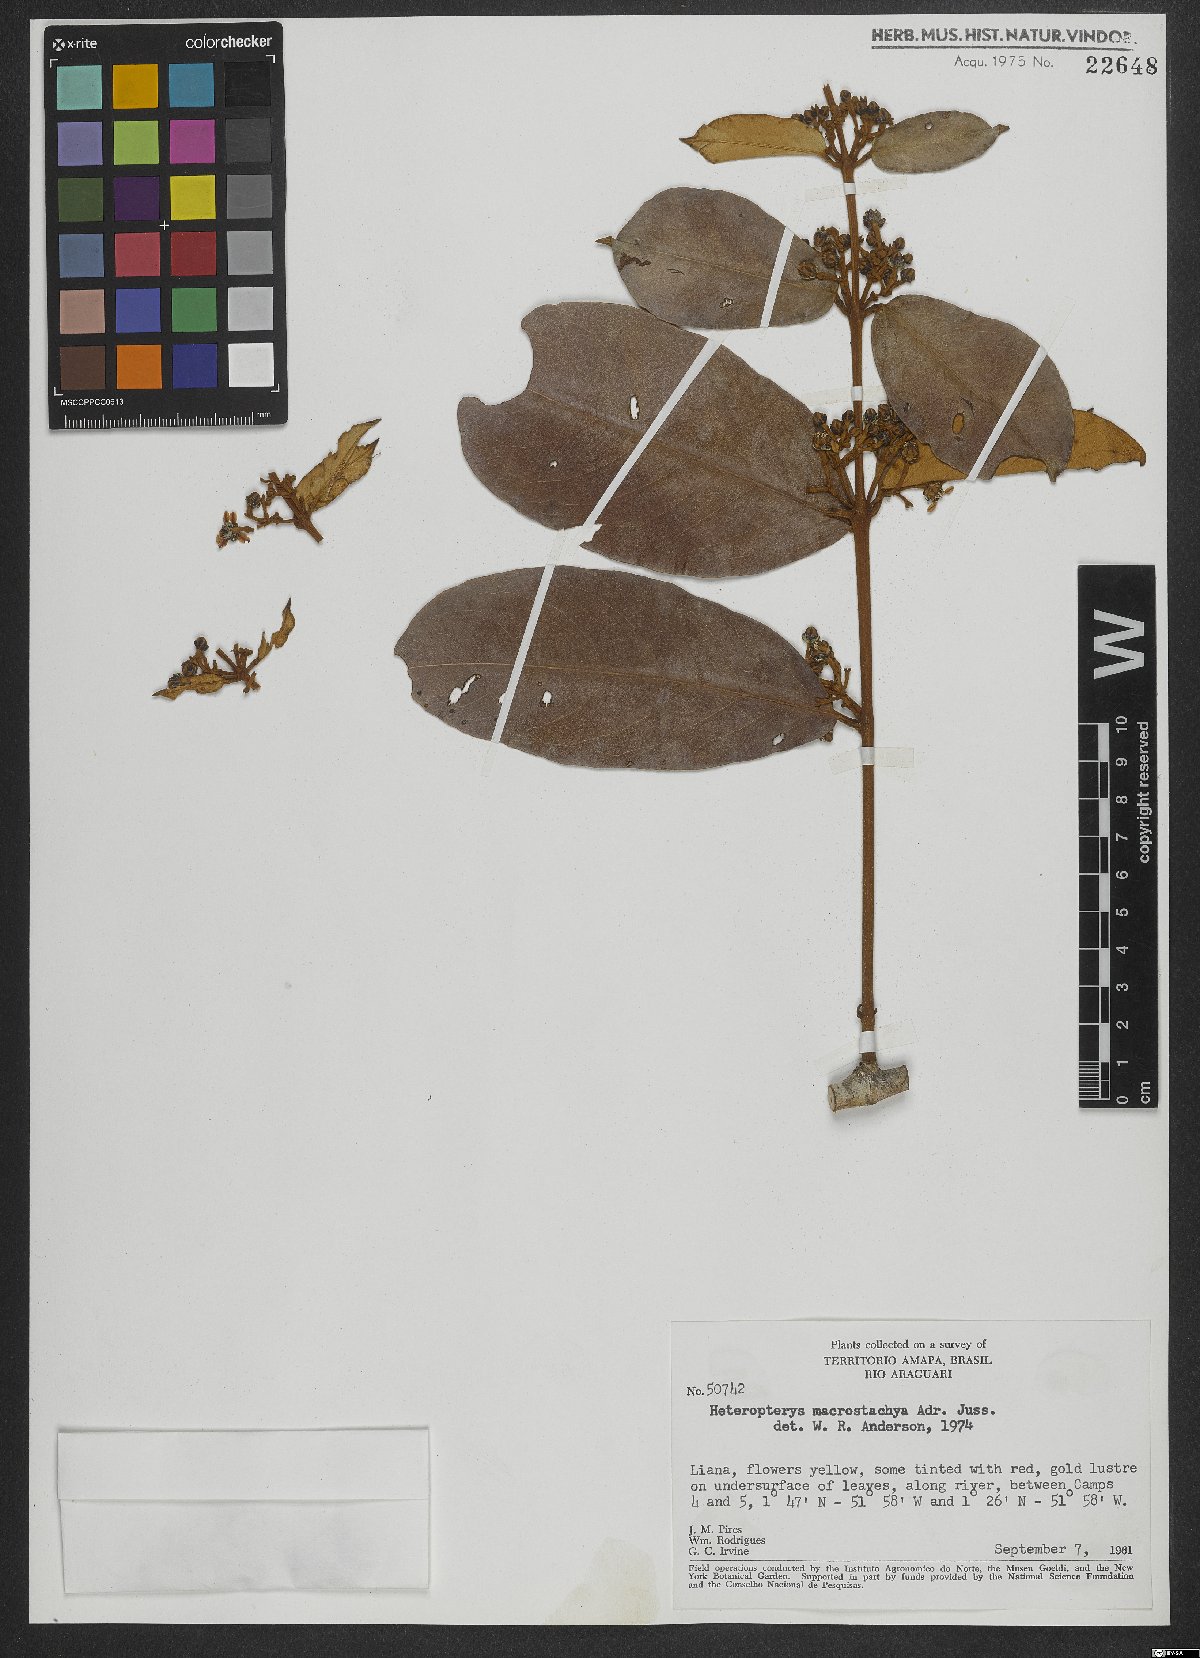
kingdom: Plantae
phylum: Tracheophyta
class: Magnoliopsida
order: Malpighiales
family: Malpighiaceae
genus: Heteropterys
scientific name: Heteropterys macrostachya
